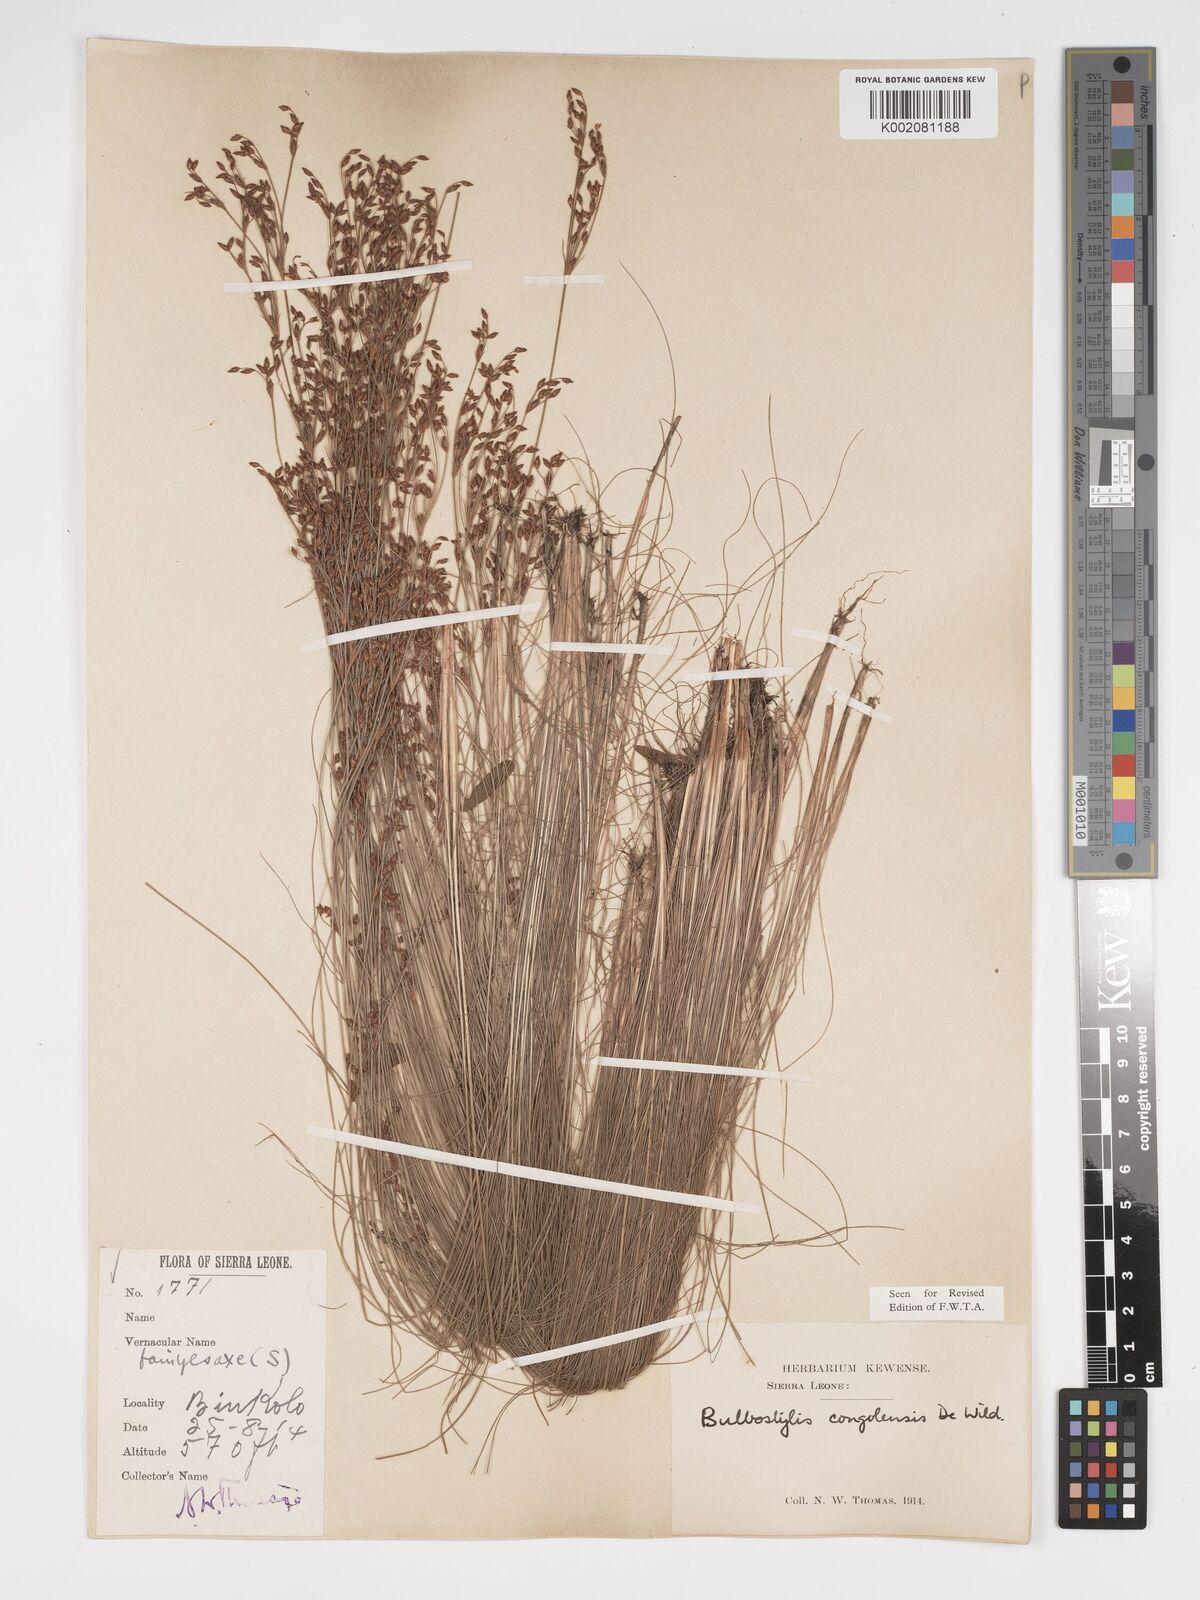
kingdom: Plantae
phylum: Tracheophyta
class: Liliopsida
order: Poales
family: Cyperaceae
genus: Bulbostylis
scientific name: Bulbostylis congolensis
